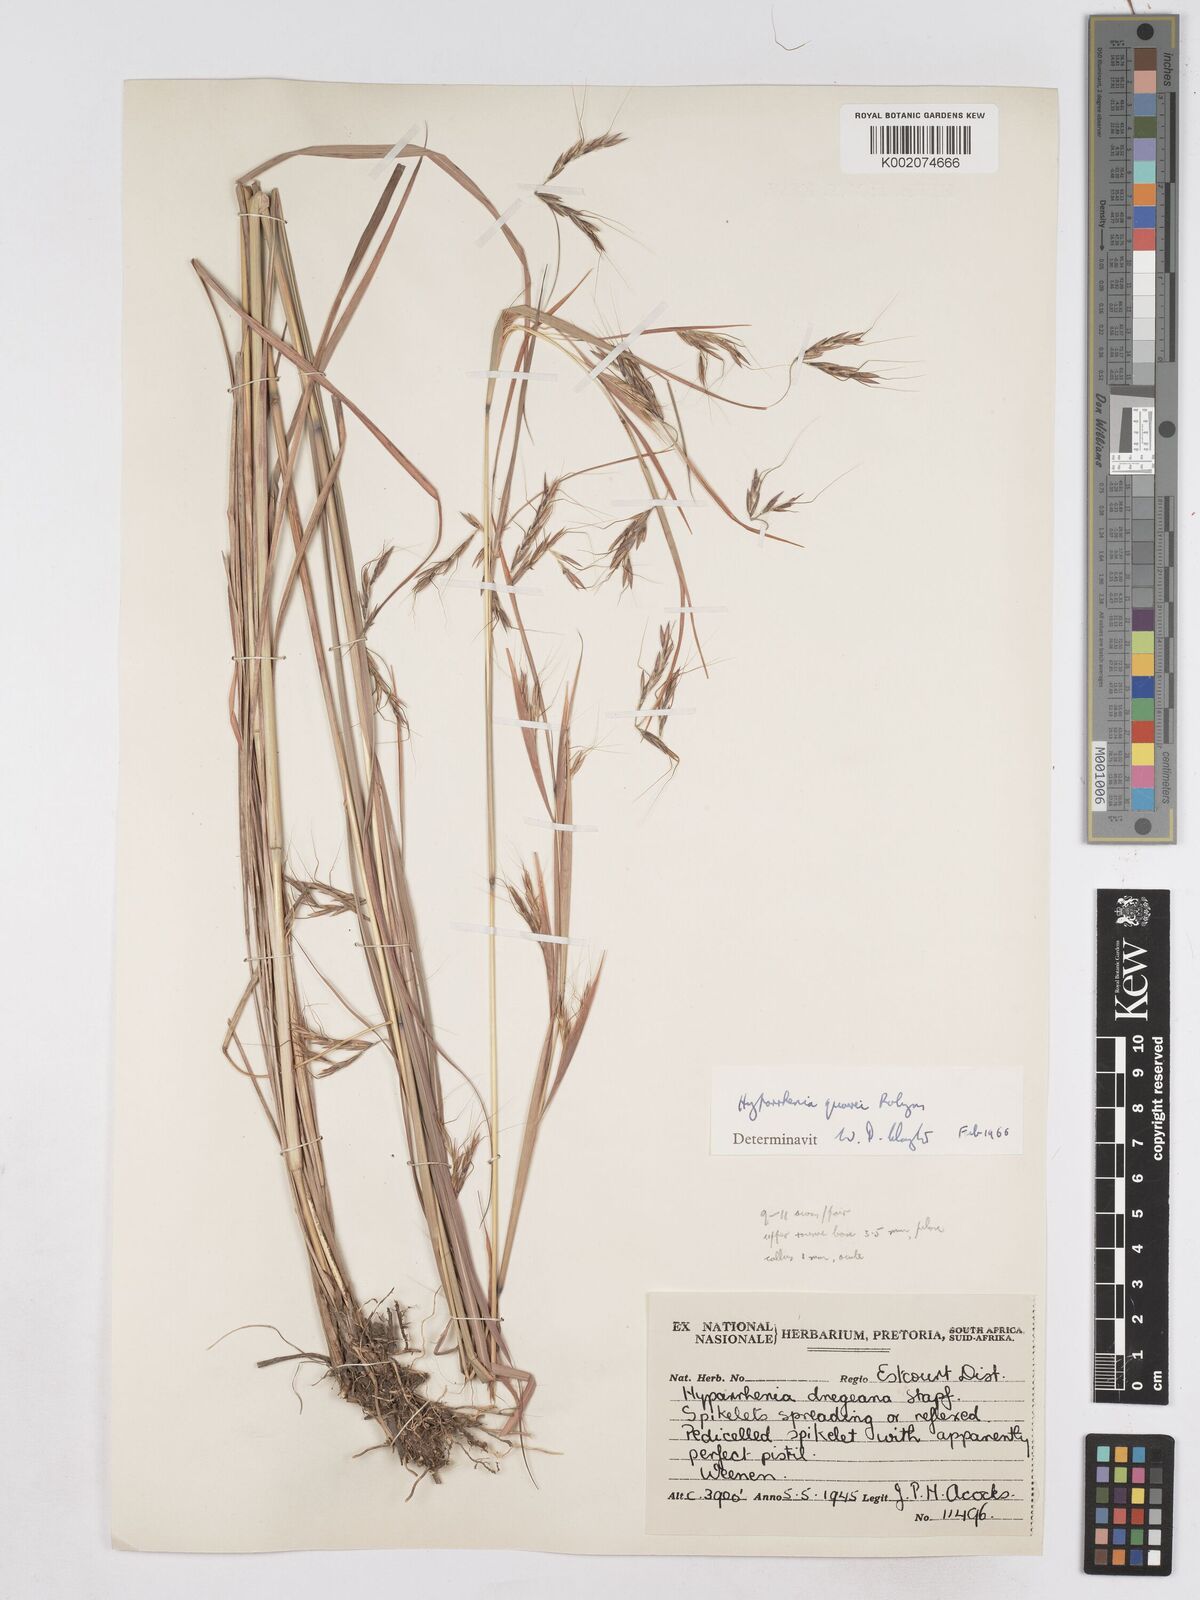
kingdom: Plantae
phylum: Tracheophyta
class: Liliopsida
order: Poales
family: Poaceae
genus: Hyparrhenia
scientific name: Hyparrhenia quarrei
